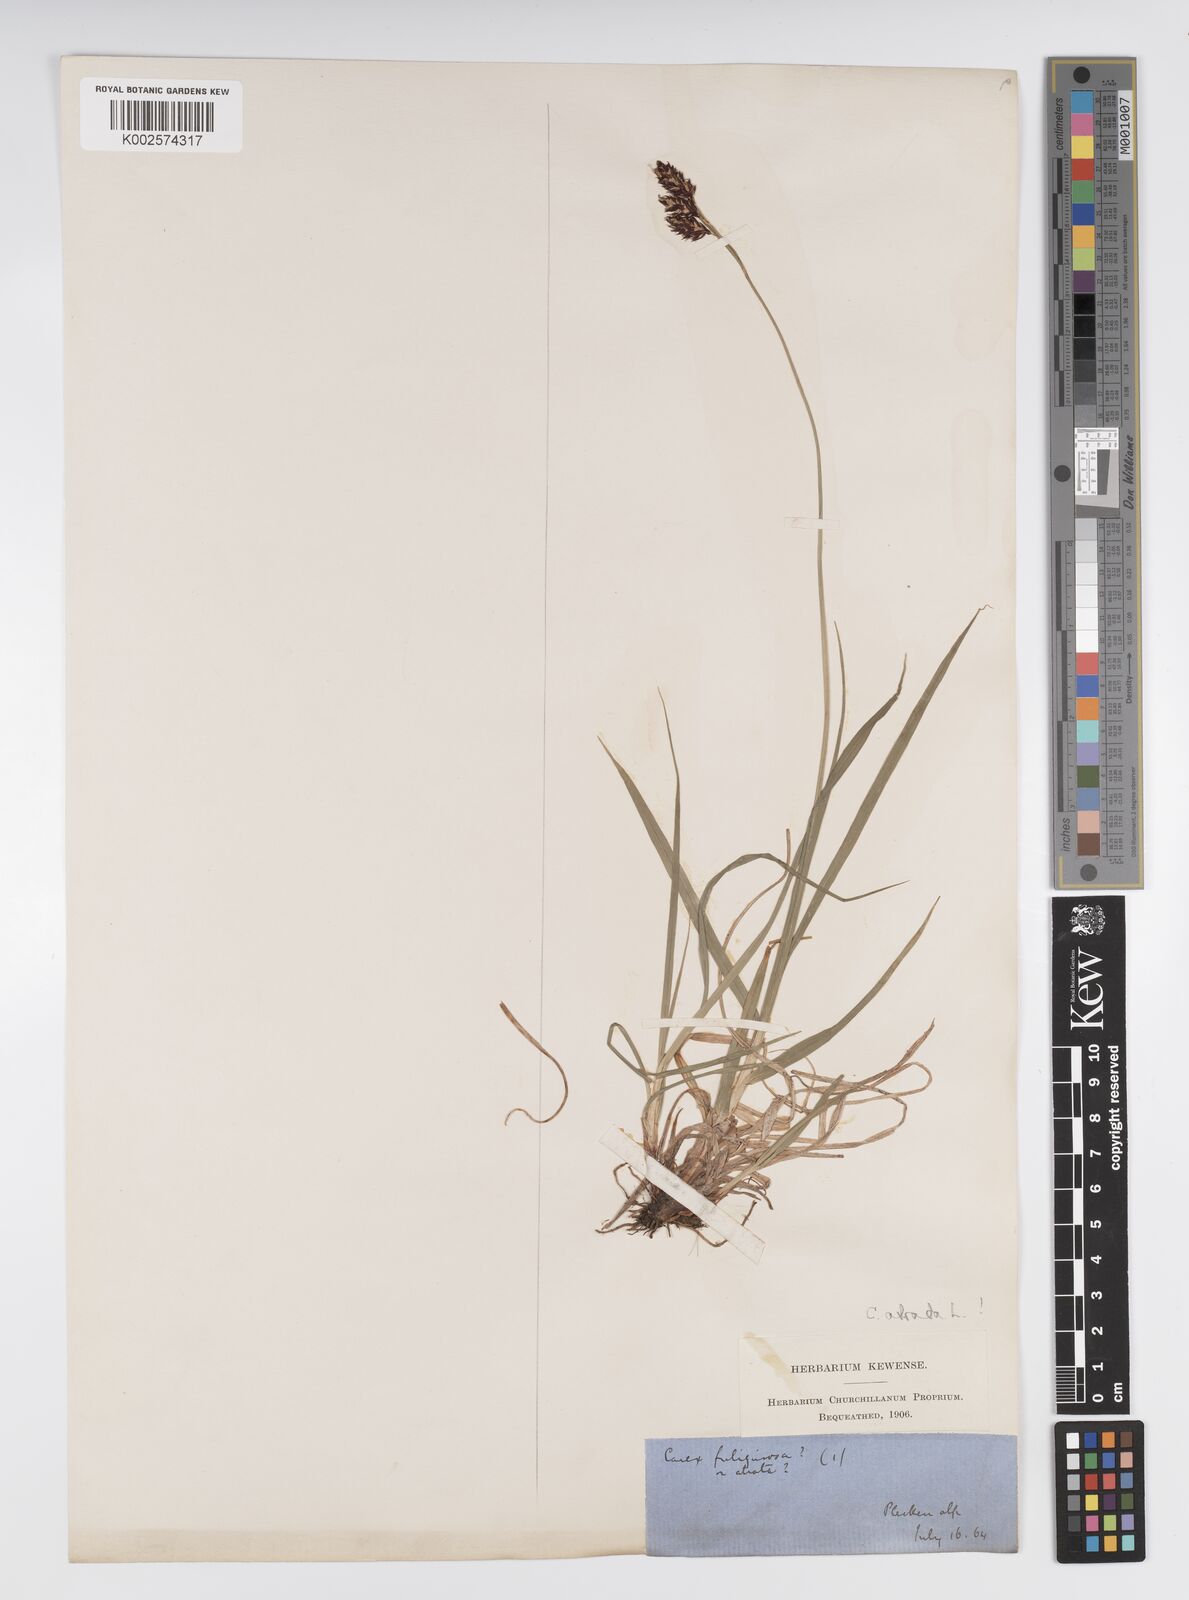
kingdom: Plantae
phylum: Tracheophyta
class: Liliopsida
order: Poales
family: Cyperaceae
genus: Carex
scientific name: Carex fuliginosa
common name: Few-flowered sedge
